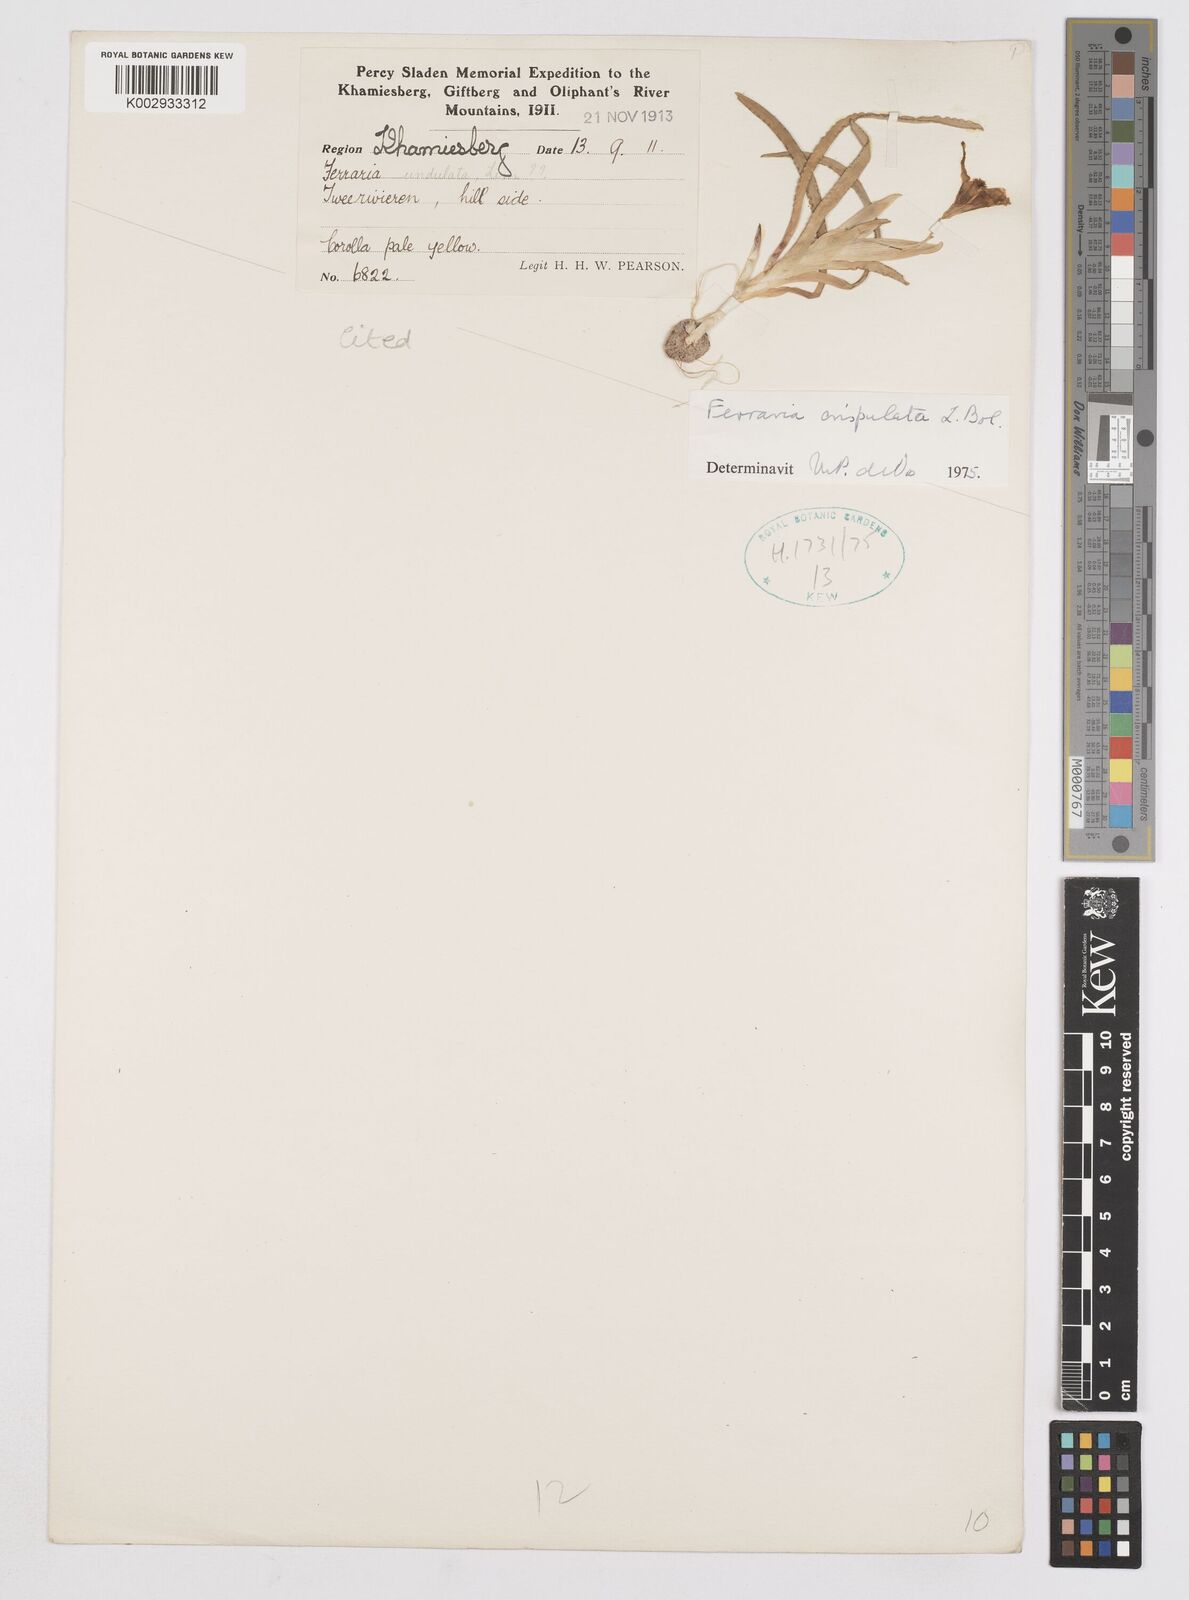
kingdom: Plantae
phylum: Tracheophyta
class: Liliopsida
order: Asparagales
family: Iridaceae
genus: Ferraria
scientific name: Ferraria macrochlamys
